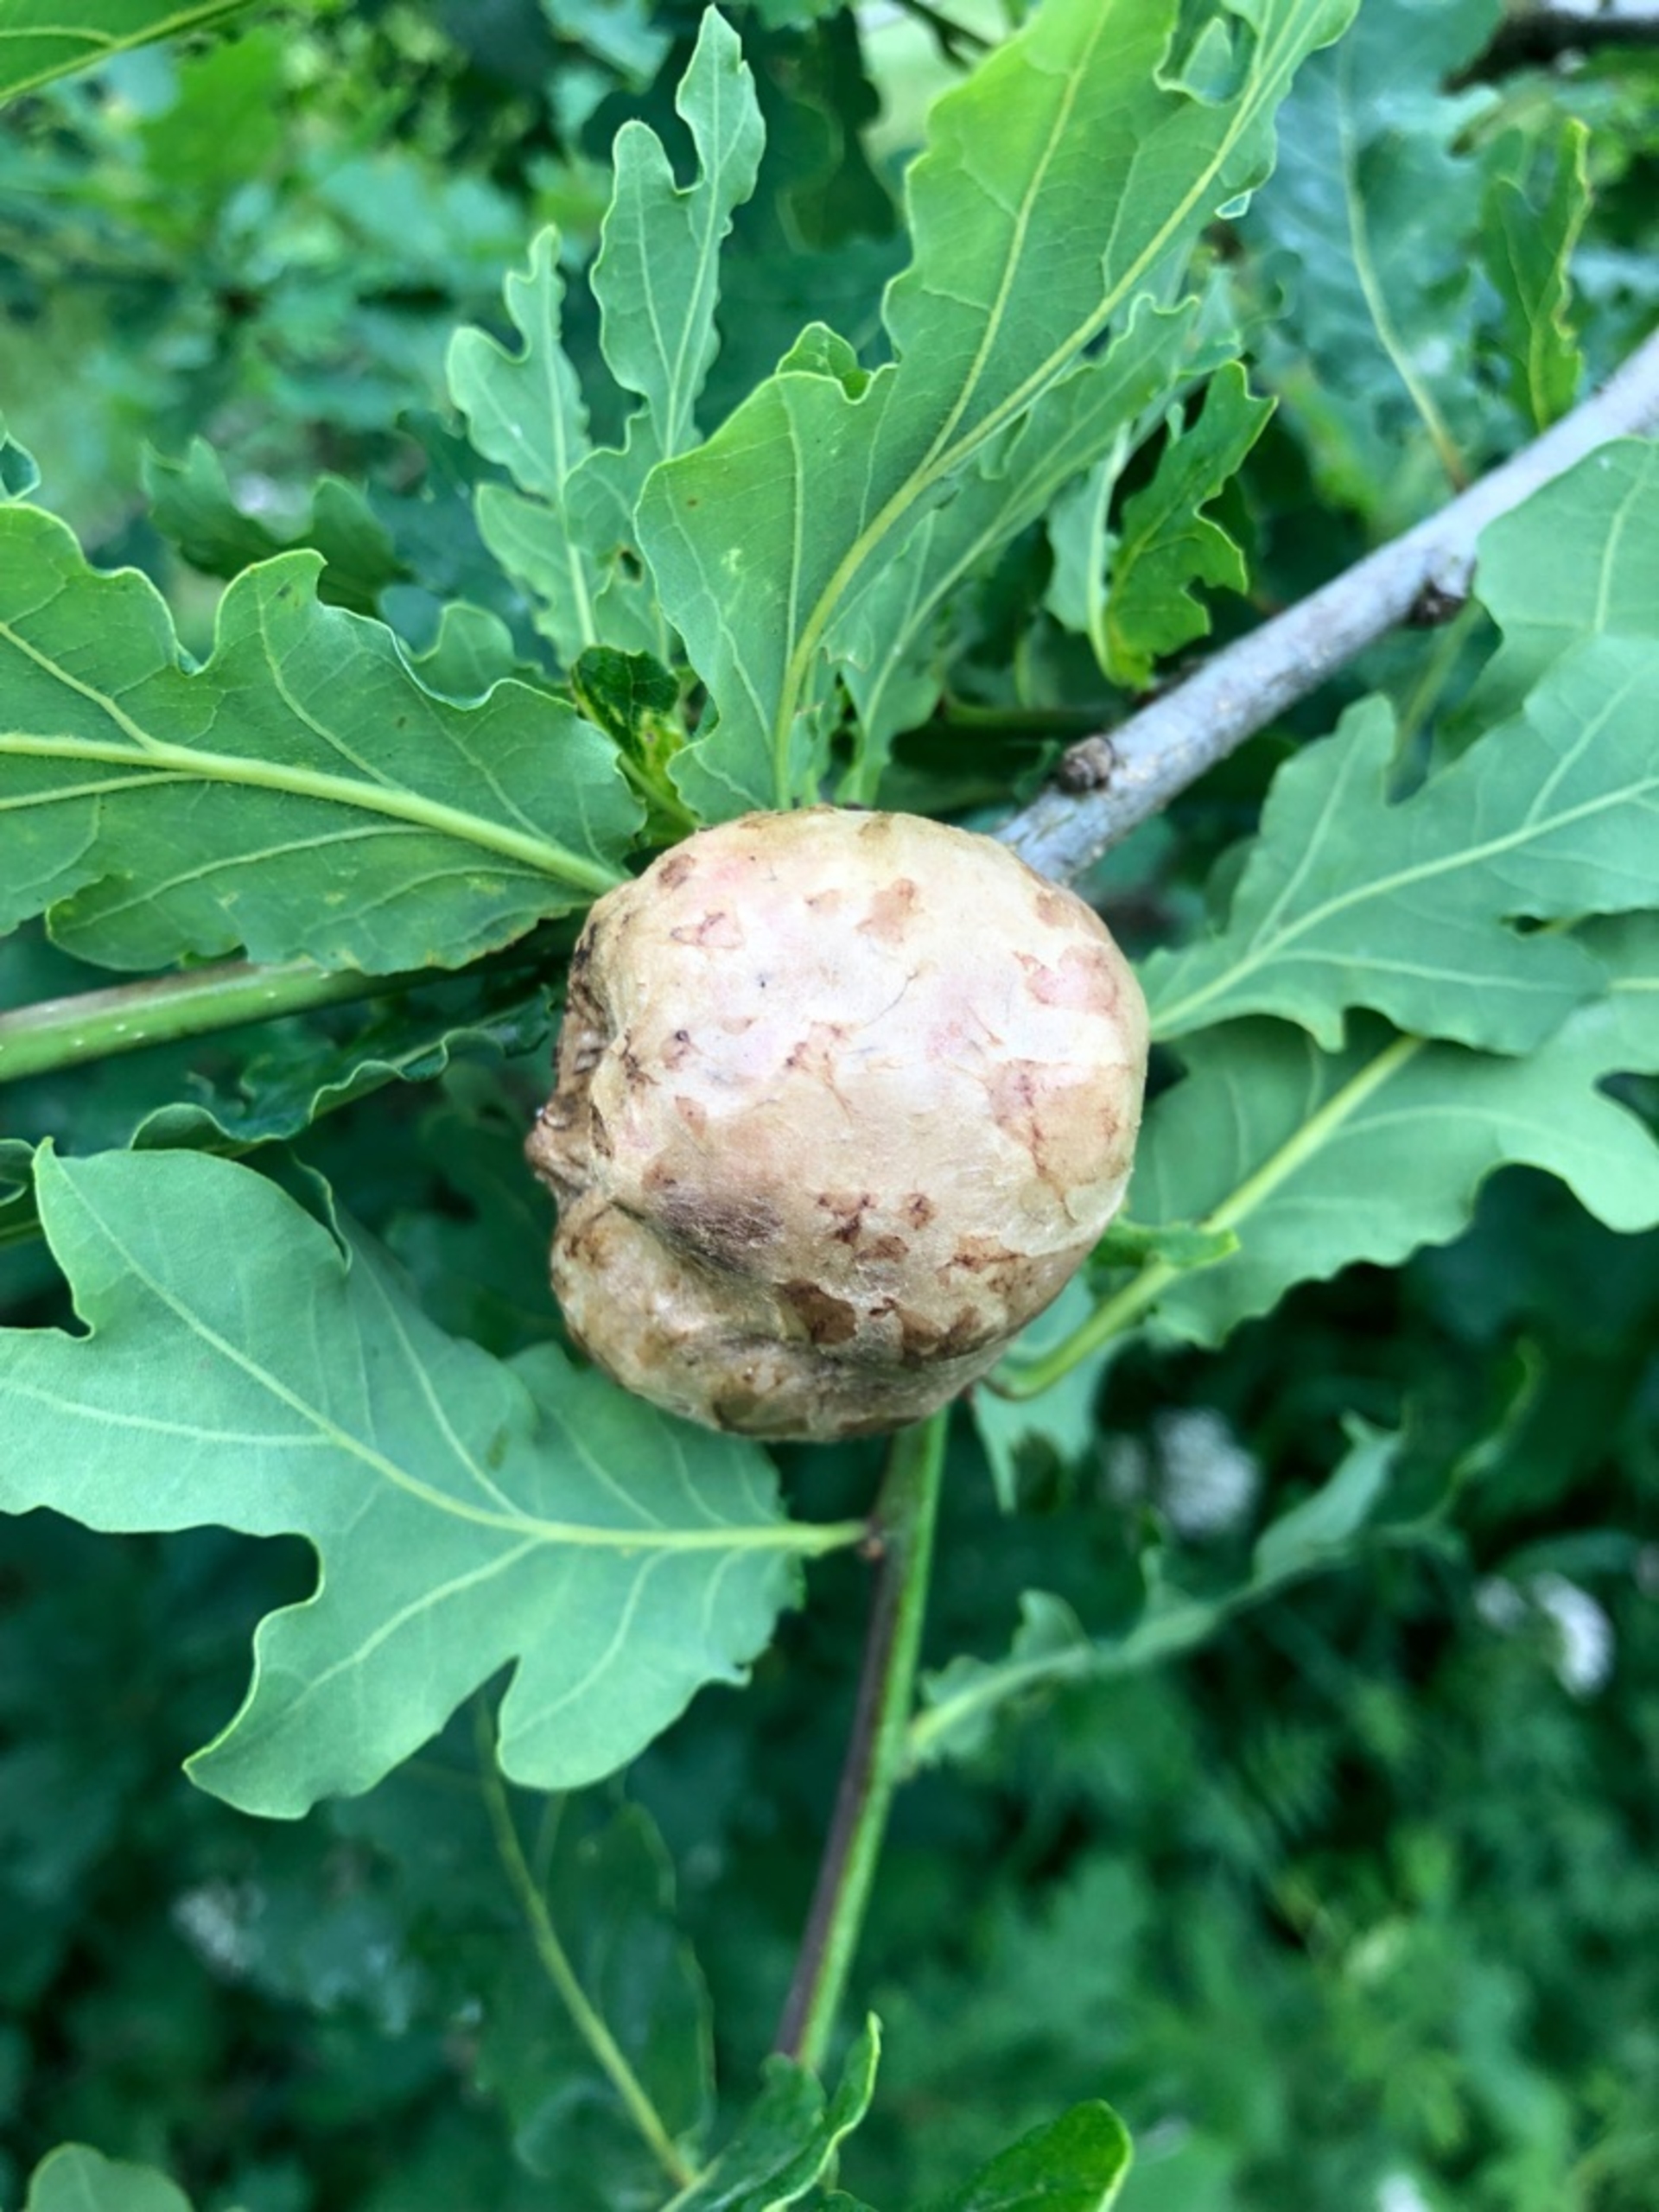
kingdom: Animalia
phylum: Arthropoda
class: Insecta
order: Hymenoptera
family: Cynipidae
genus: Biorhiza
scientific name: Biorhiza pallida
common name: Ege-kartoffelgalhveps
